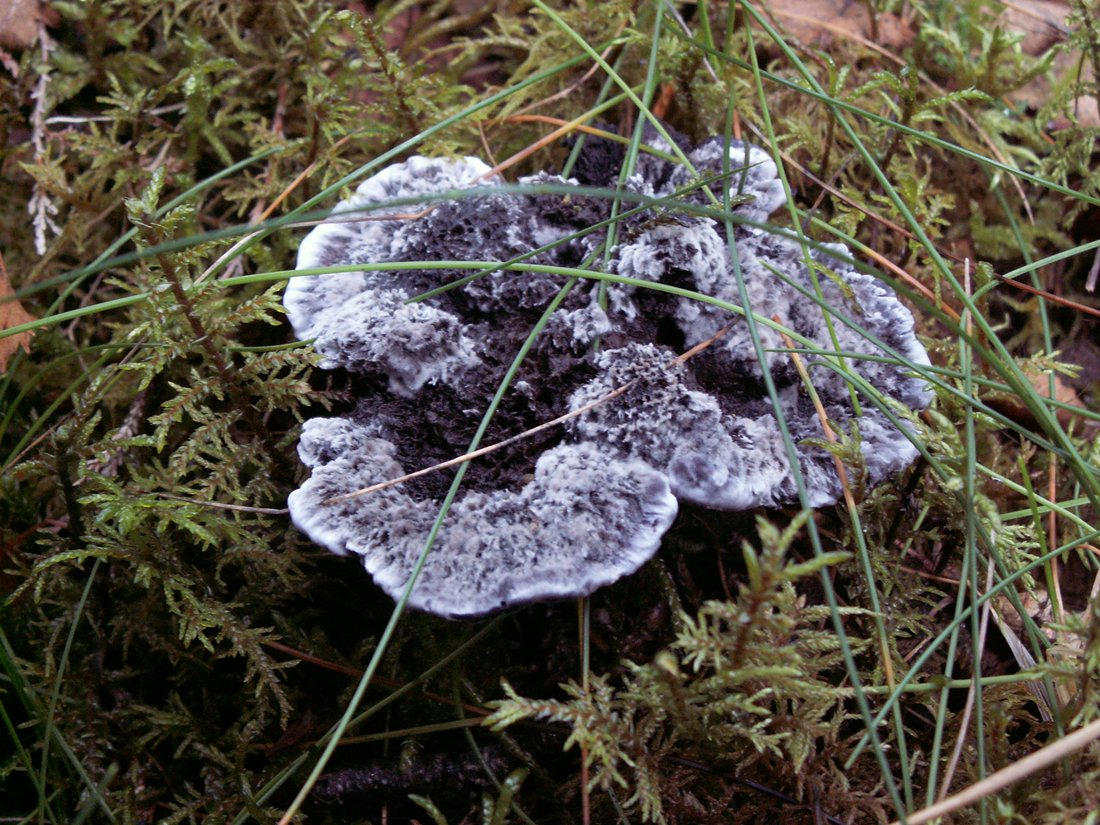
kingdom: Fungi
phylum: Basidiomycota
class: Agaricomycetes
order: Thelephorales
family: Thelephoraceae
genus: Phellodon
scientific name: Phellodon
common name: mørk duftpigsvamp
